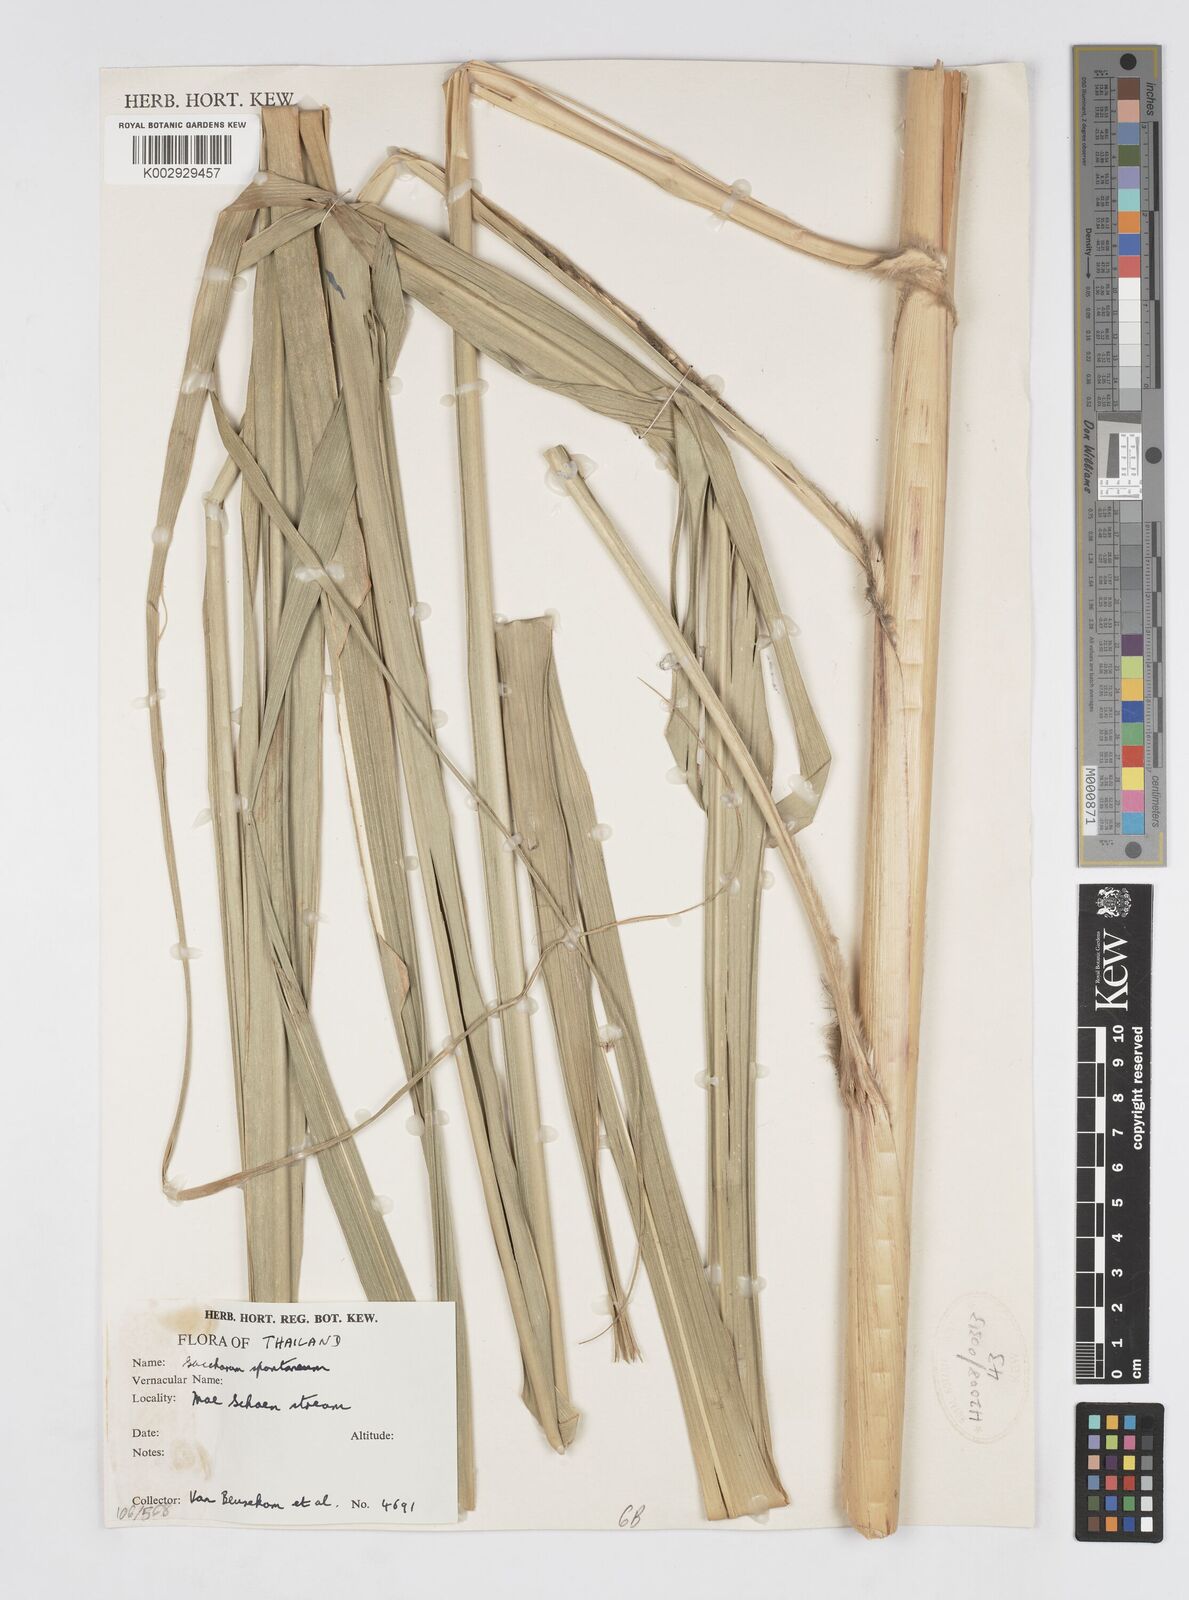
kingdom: Plantae
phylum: Tracheophyta
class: Liliopsida
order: Poales
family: Poaceae
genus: Saccharum
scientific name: Saccharum spontaneum
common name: Wild sugarcane
